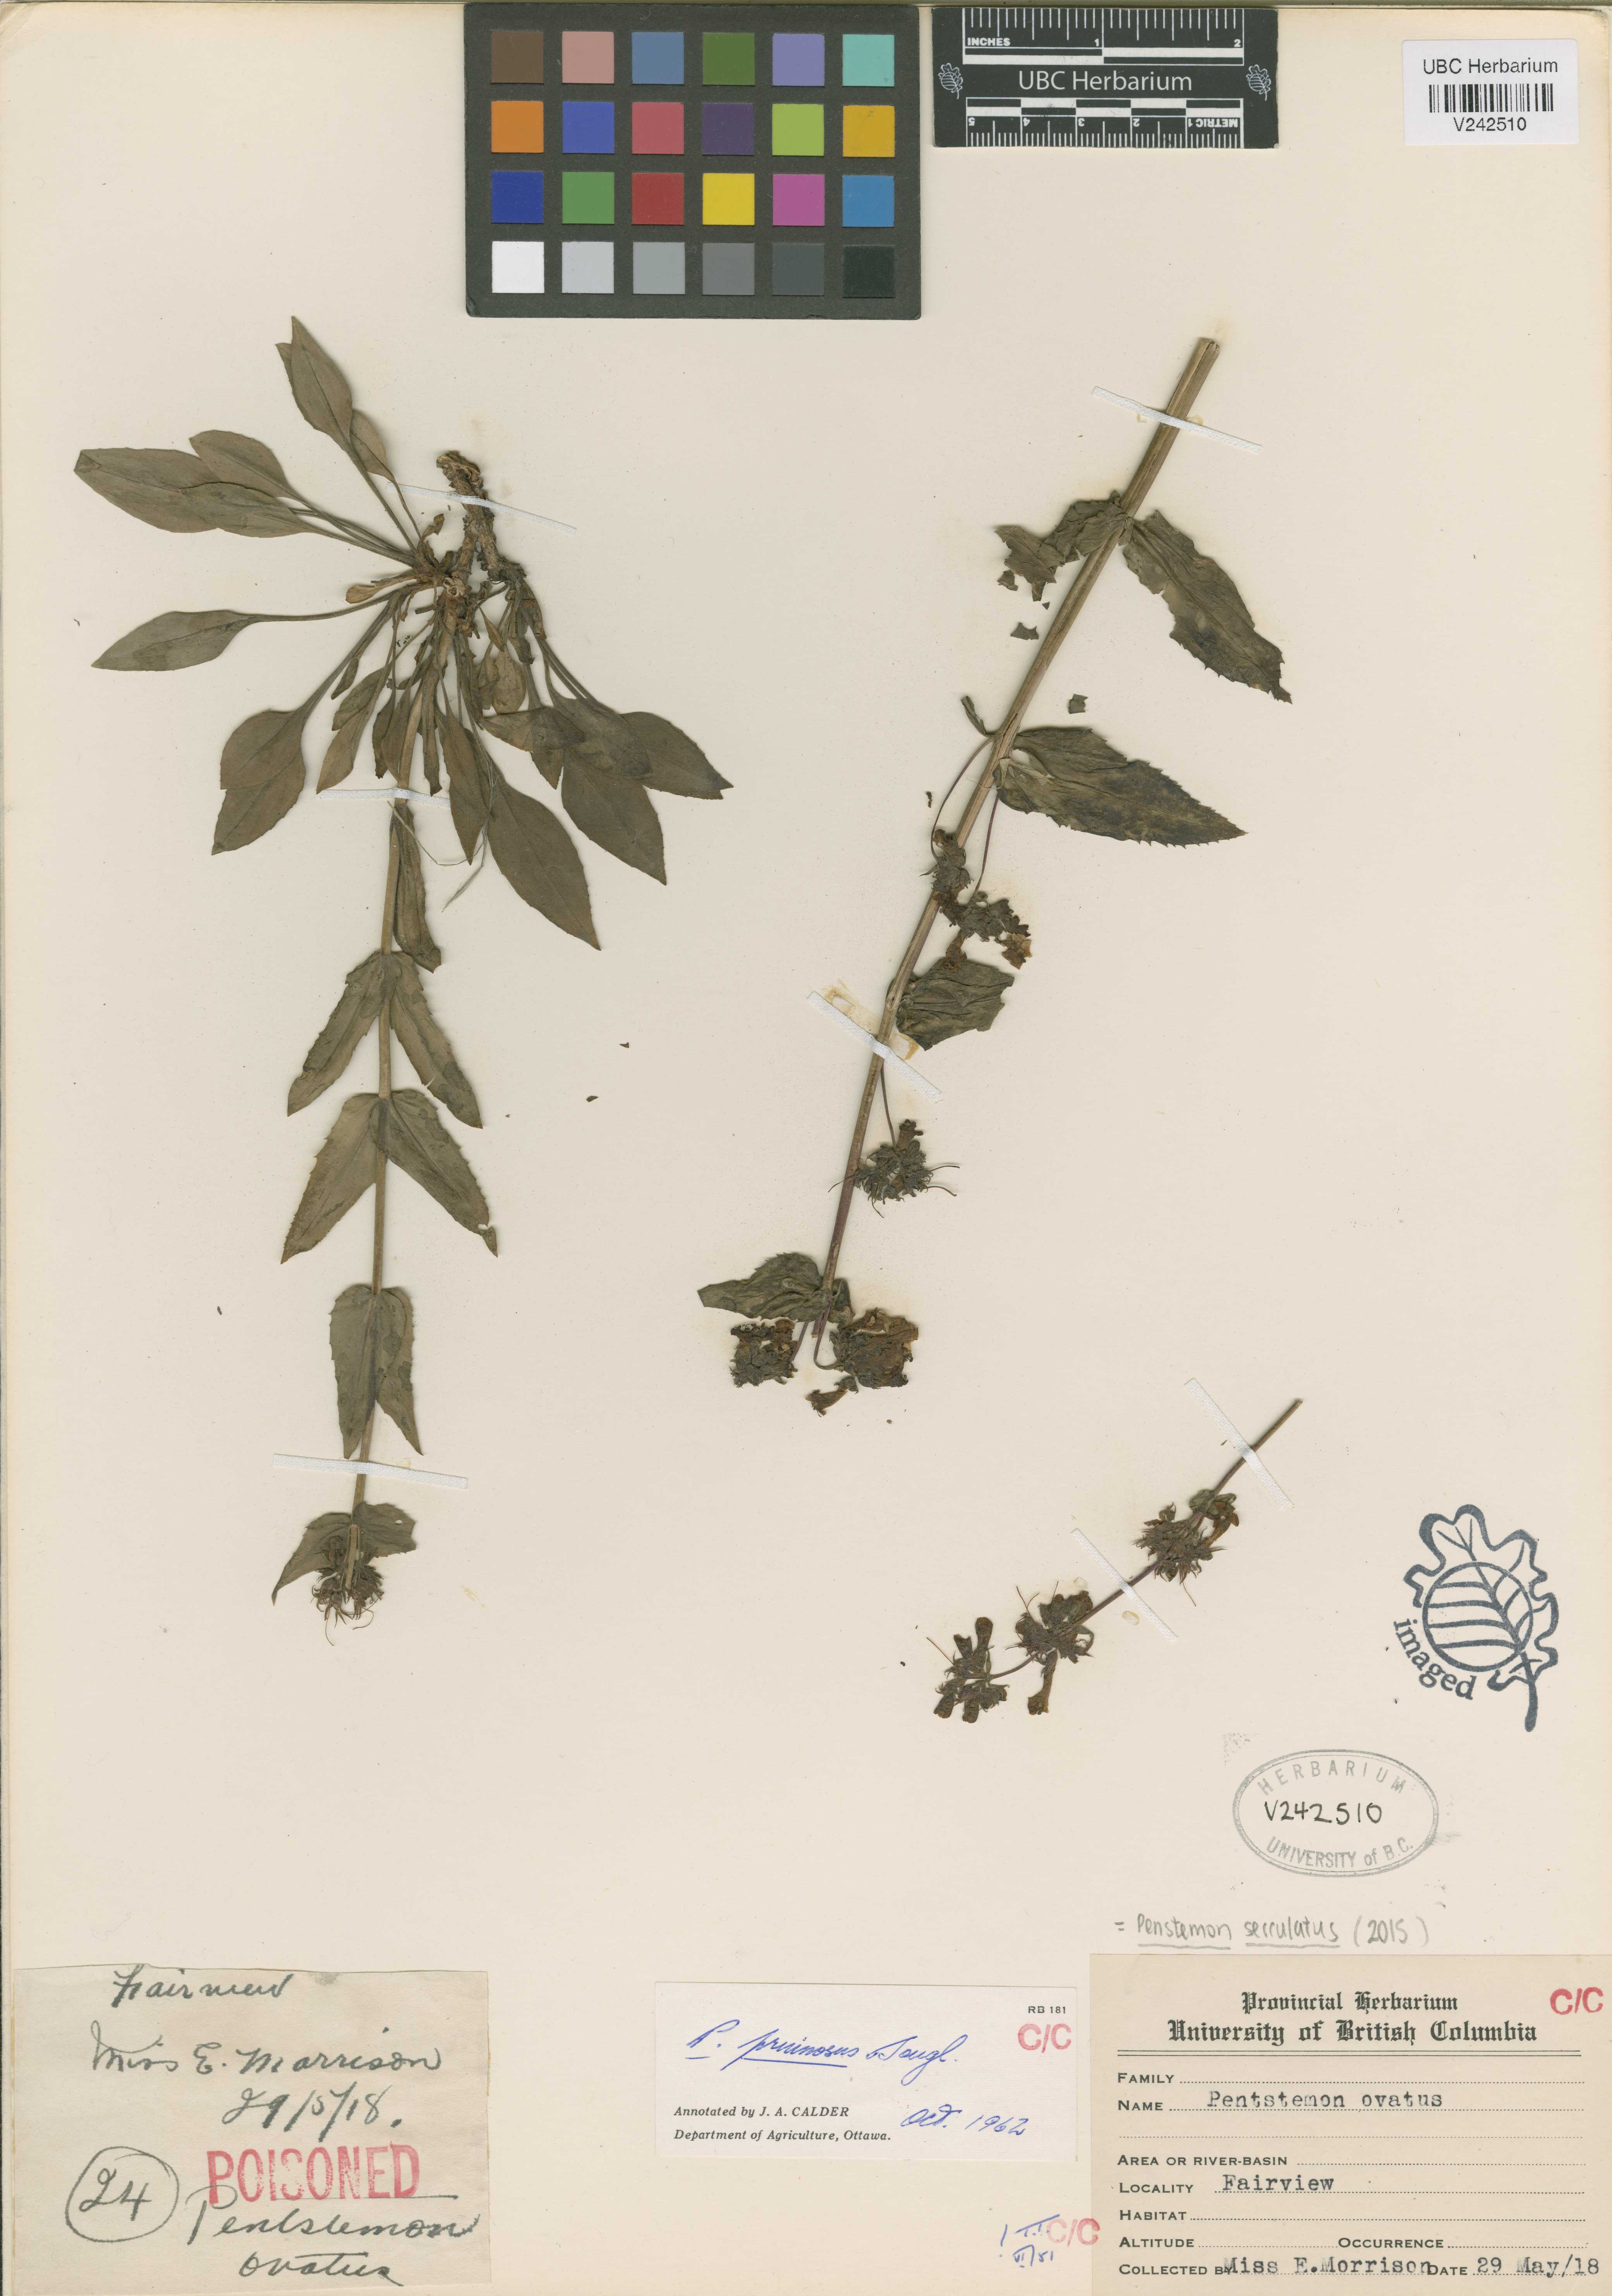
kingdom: Plantae
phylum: Tracheophyta
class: Magnoliopsida
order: Lamiales
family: Plantaginaceae
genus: Penstemon
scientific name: Penstemon serrulatus
